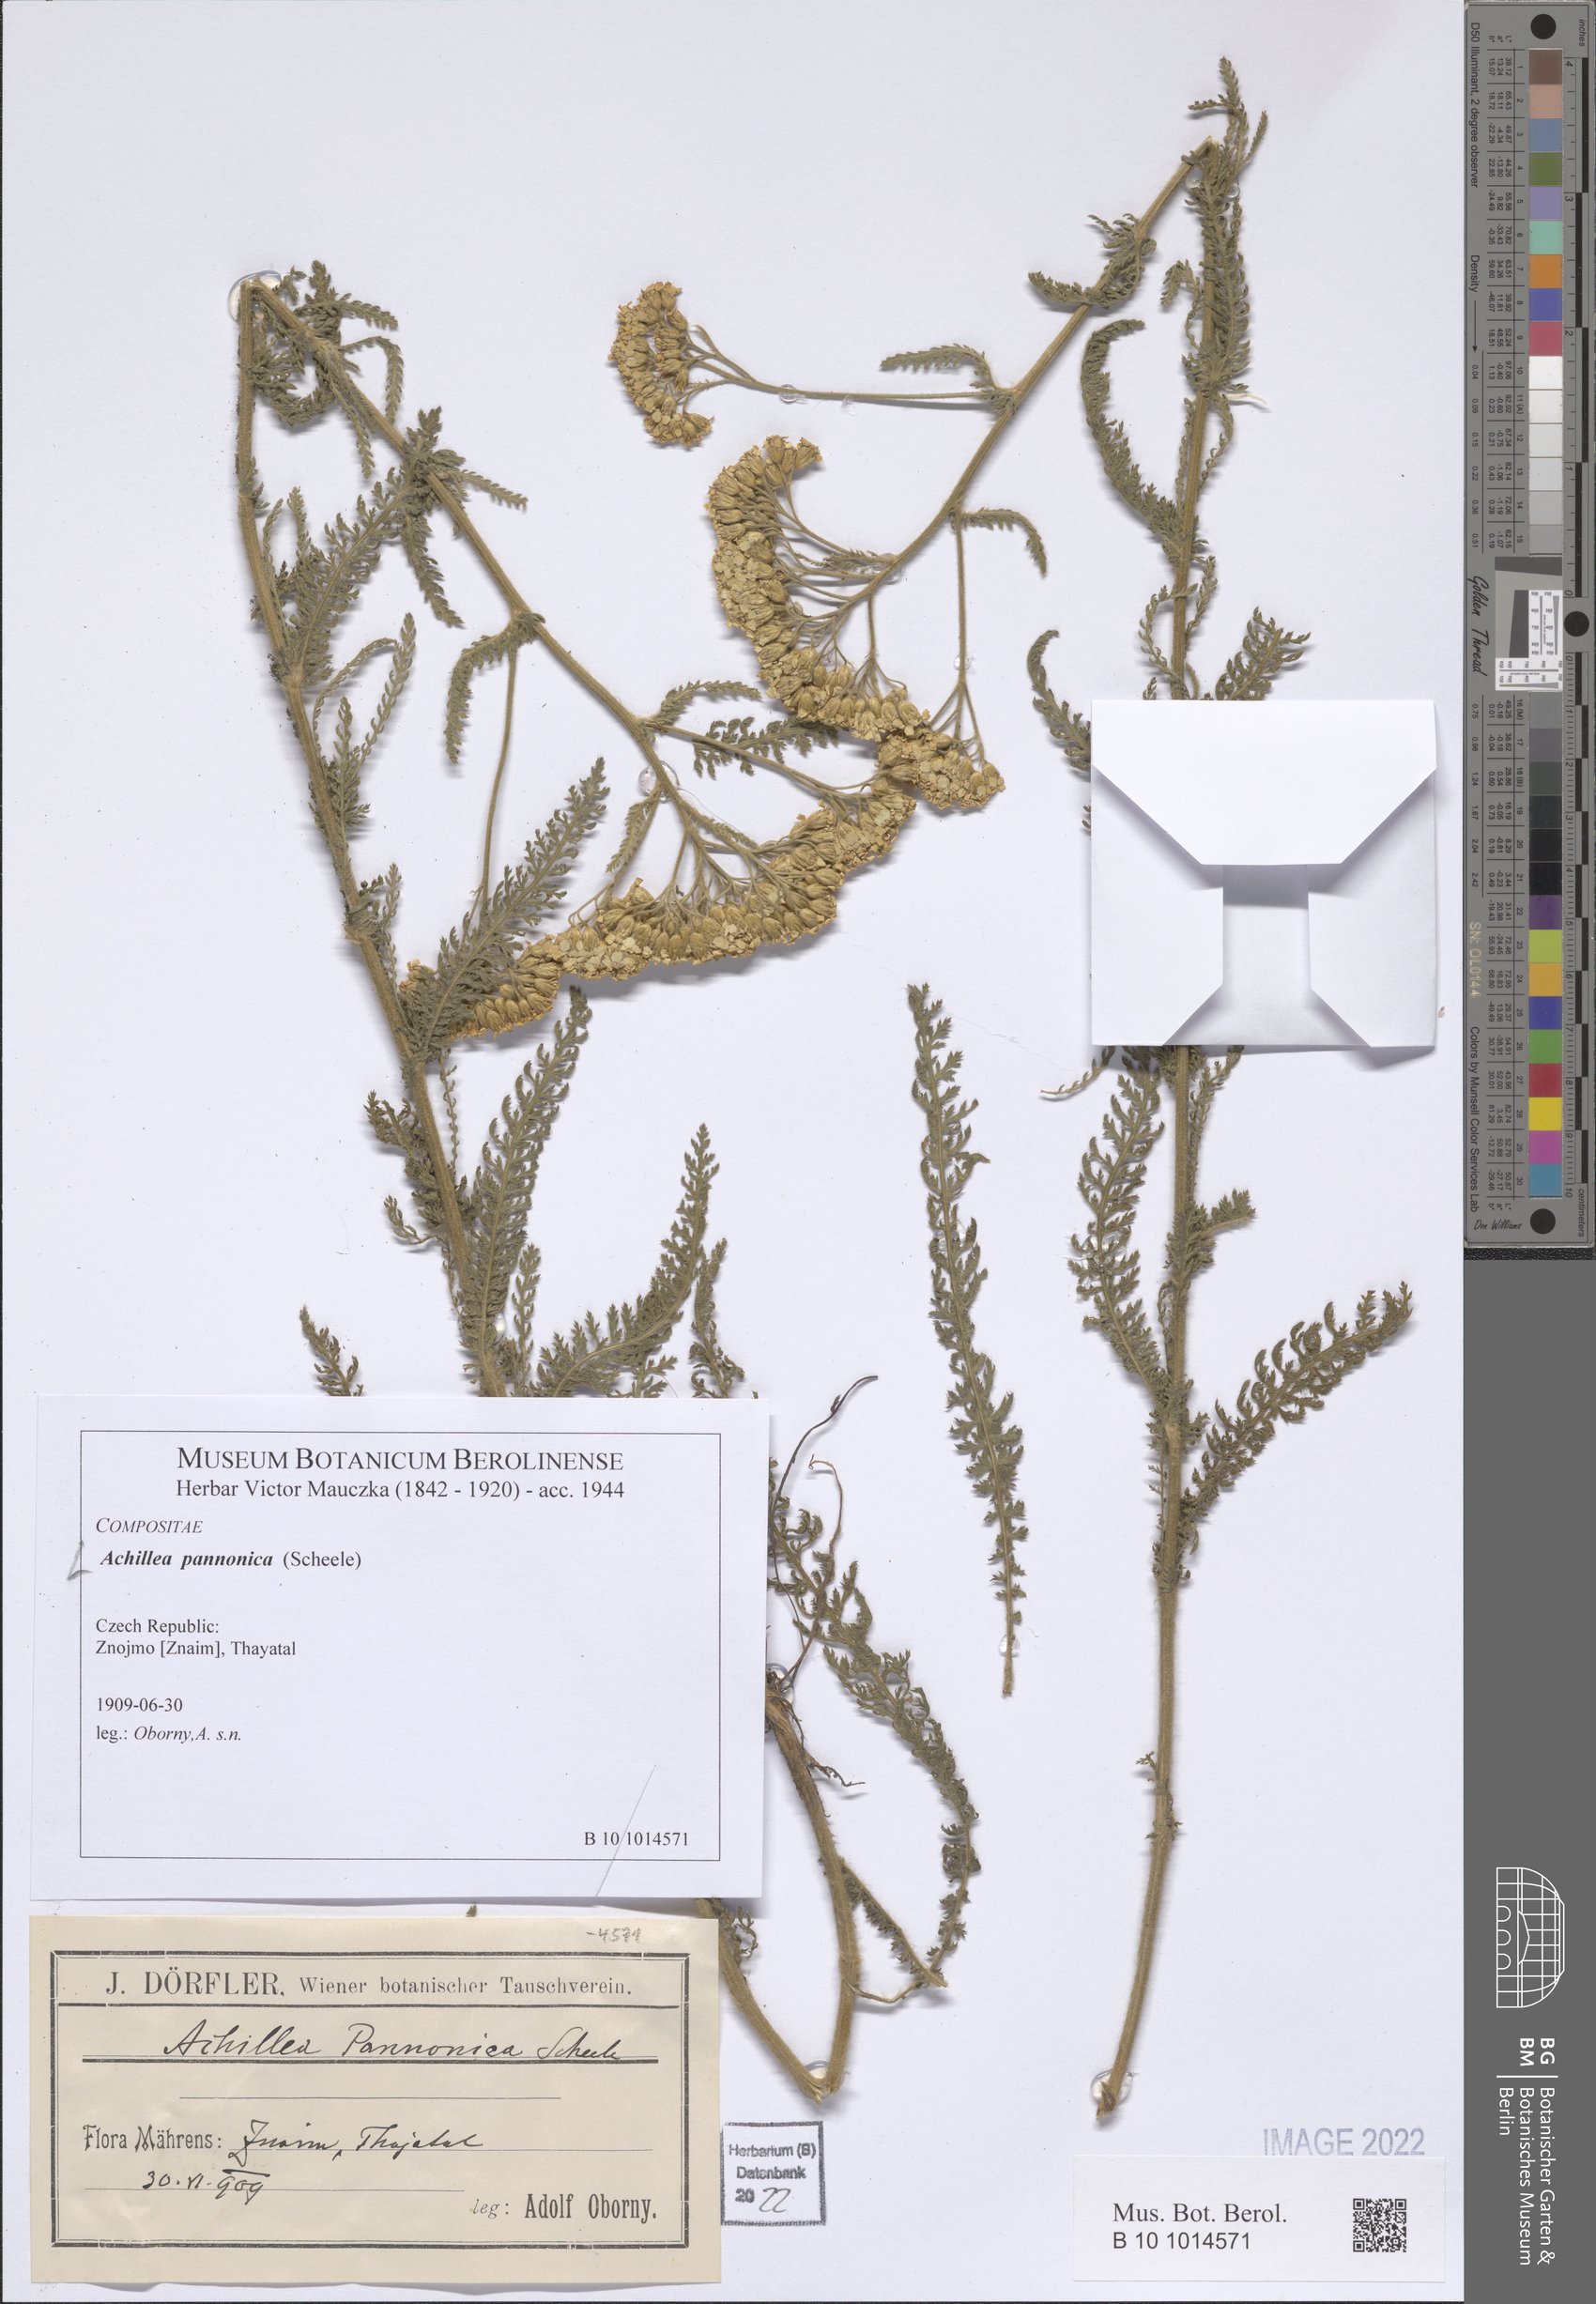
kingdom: Plantae
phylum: Tracheophyta
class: Magnoliopsida
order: Asterales
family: Asteraceae
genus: Achillea
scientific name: Achillea pannonica
